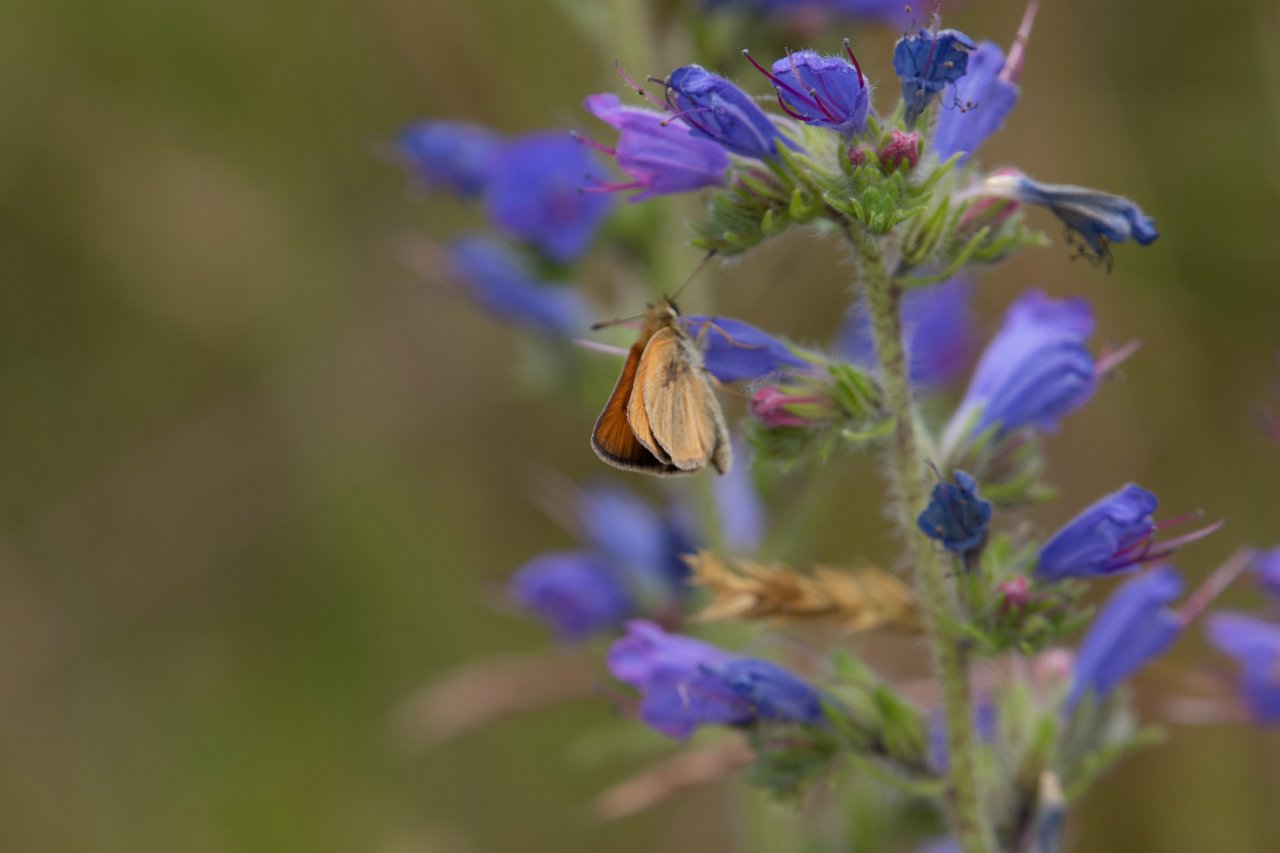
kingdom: Animalia
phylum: Arthropoda
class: Insecta
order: Lepidoptera
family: Hesperiidae
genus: Thymelicus
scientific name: Thymelicus lineola
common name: European Skipper
